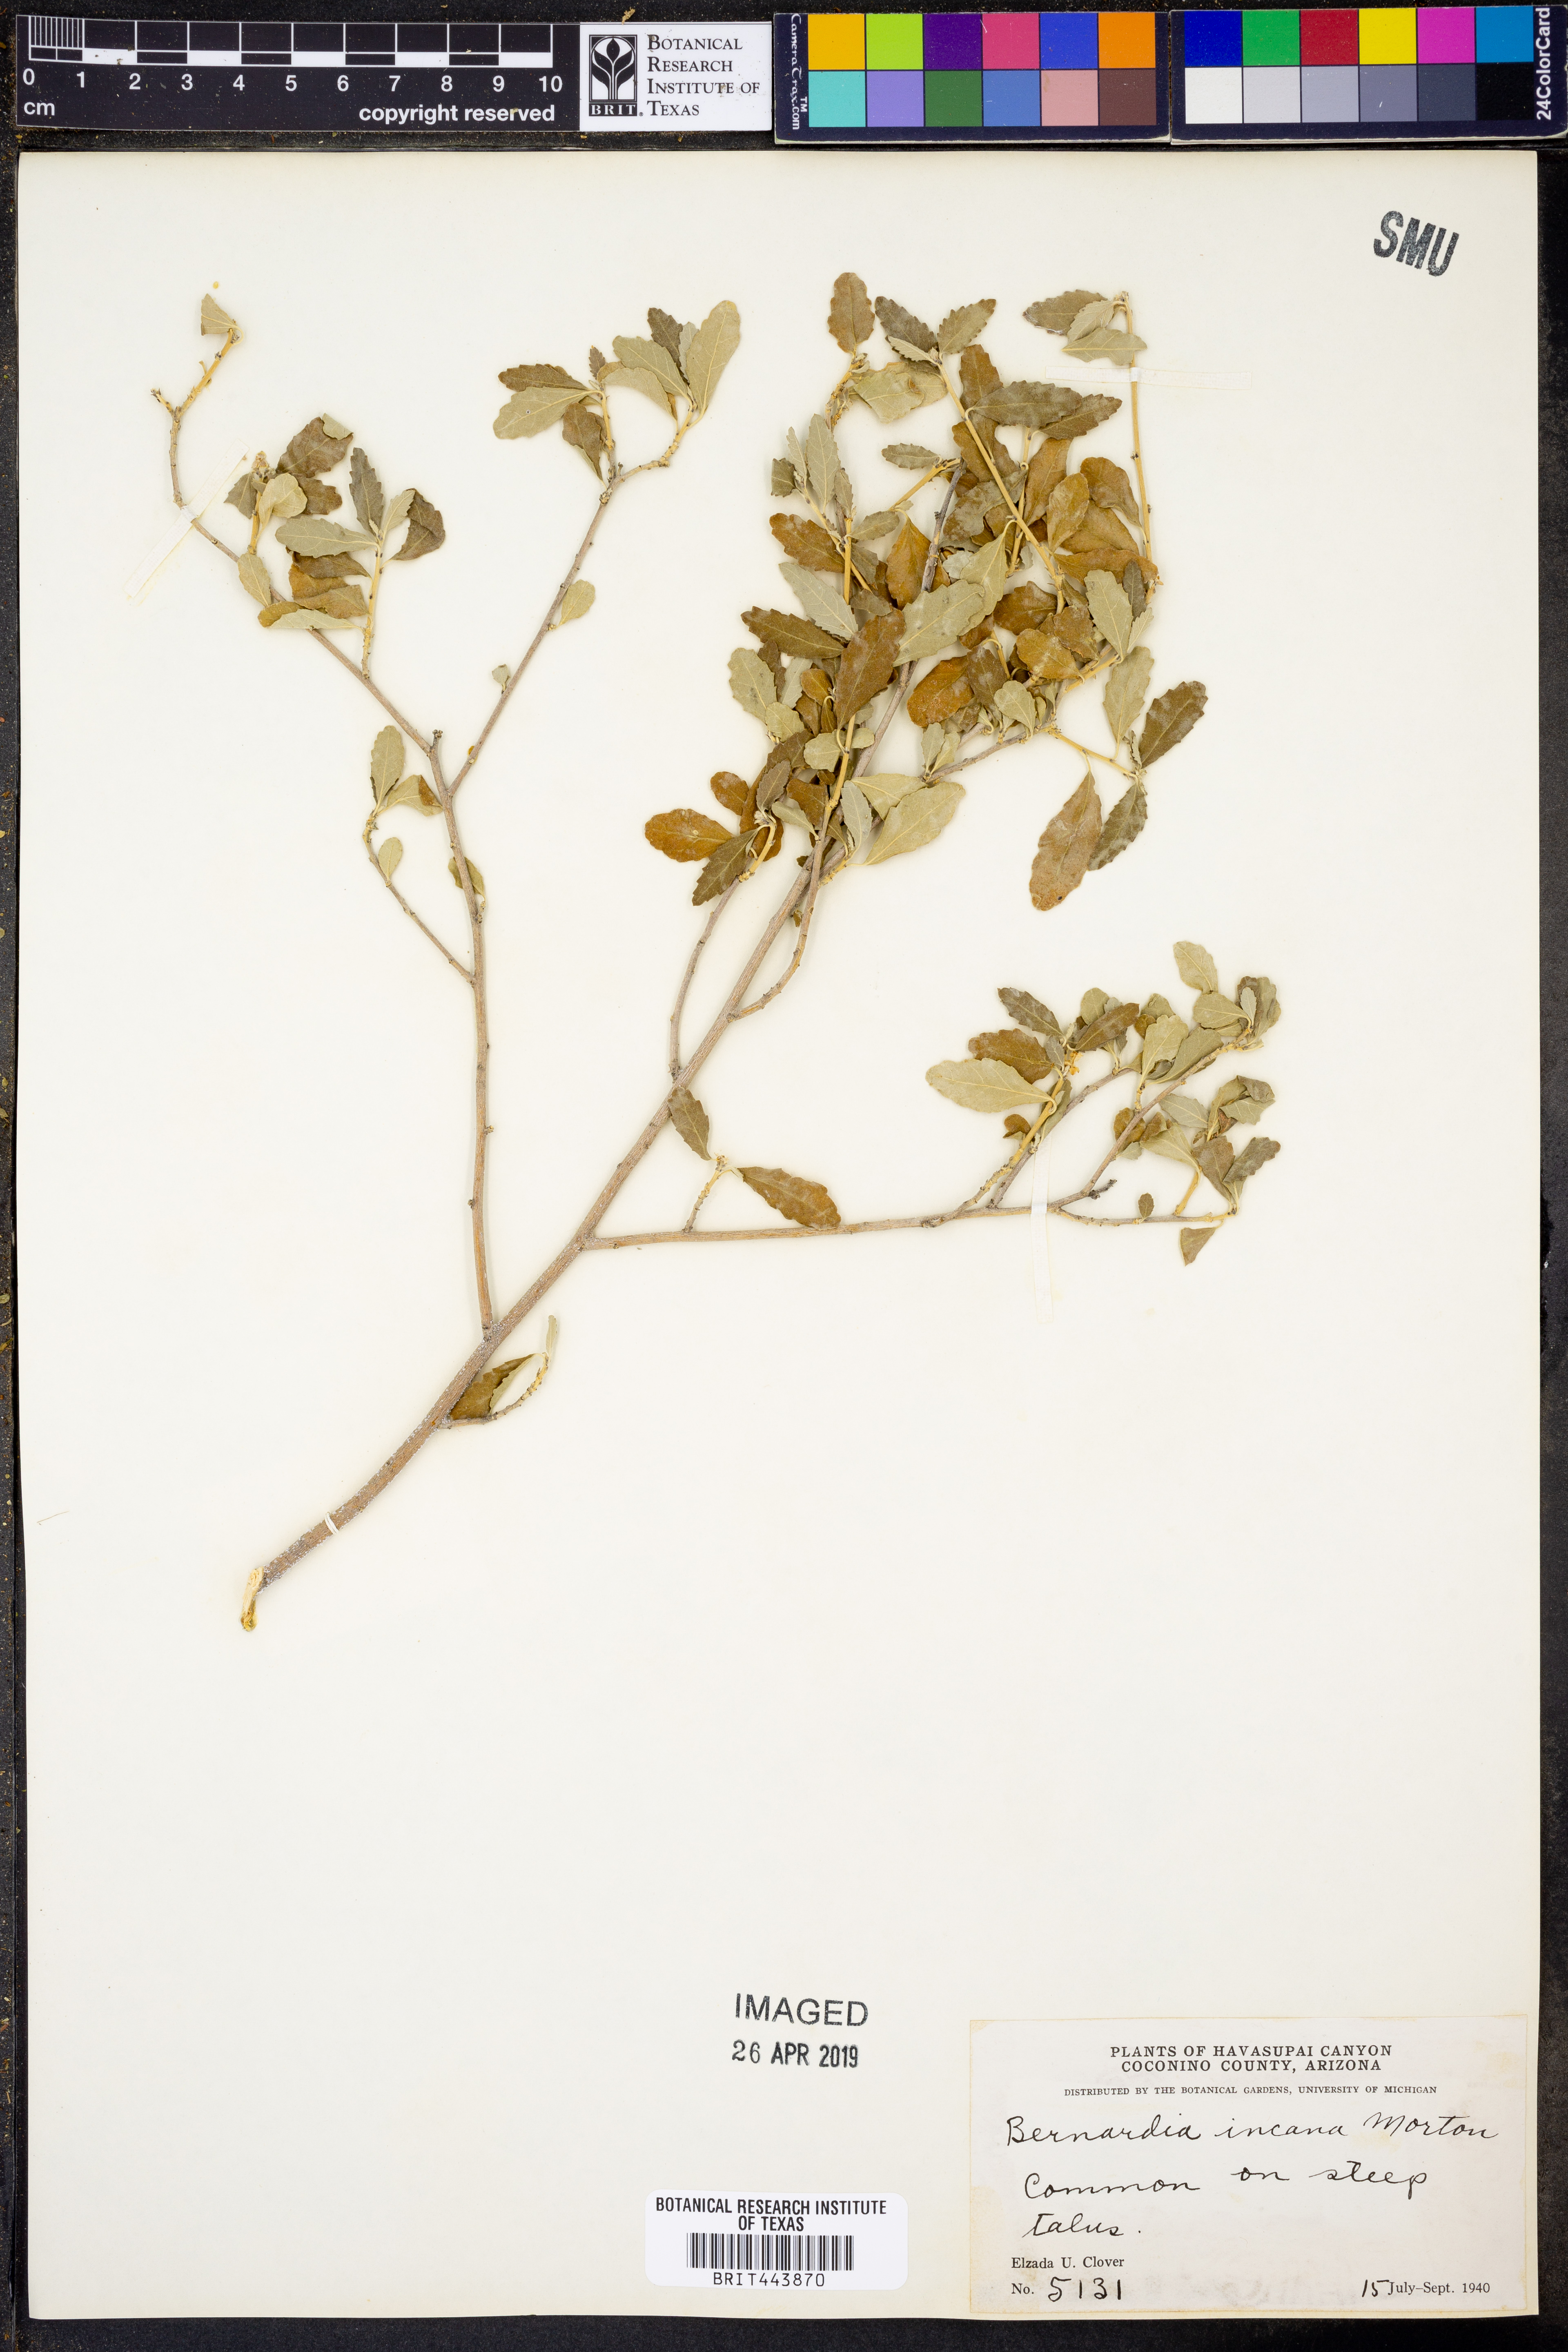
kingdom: Plantae
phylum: Tracheophyta
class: Magnoliopsida
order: Malpighiales
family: Euphorbiaceae
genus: Bernardia
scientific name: Bernardia incana
